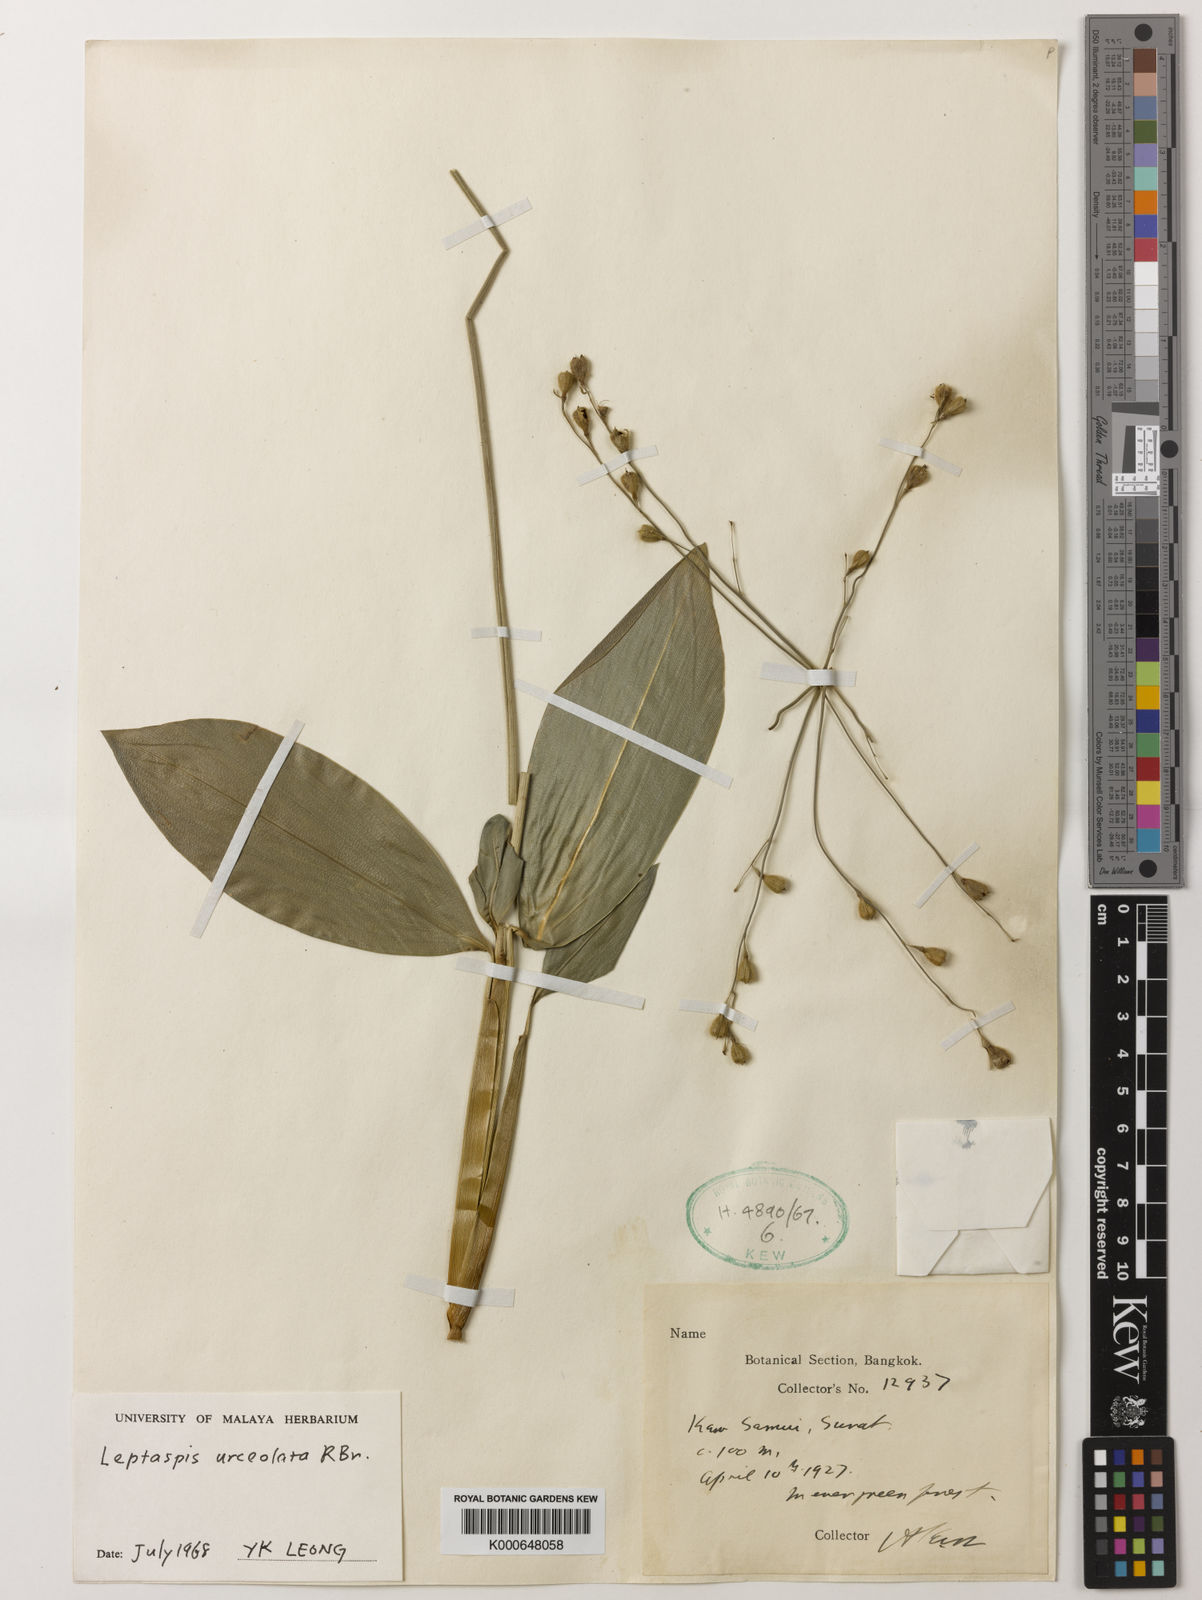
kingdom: Plantae
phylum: Tracheophyta
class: Liliopsida
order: Poales
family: Poaceae
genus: Scrotochloa
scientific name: Scrotochloa urceolata
